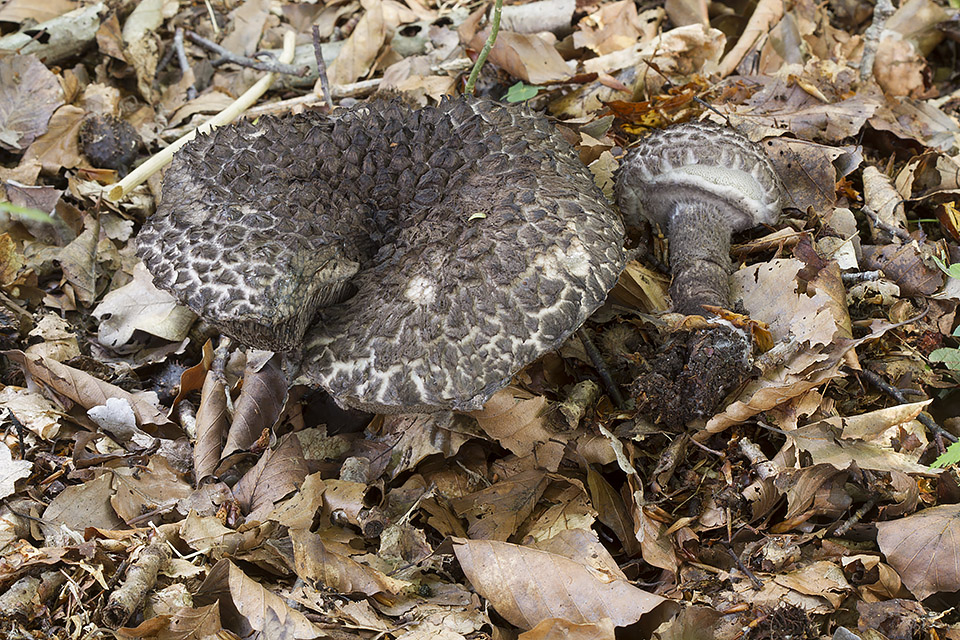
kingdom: Fungi
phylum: Basidiomycota
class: Agaricomycetes
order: Boletales
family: Boletaceae
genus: Strobilomyces
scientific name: Strobilomyces strobilaceus
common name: koglerørhat
